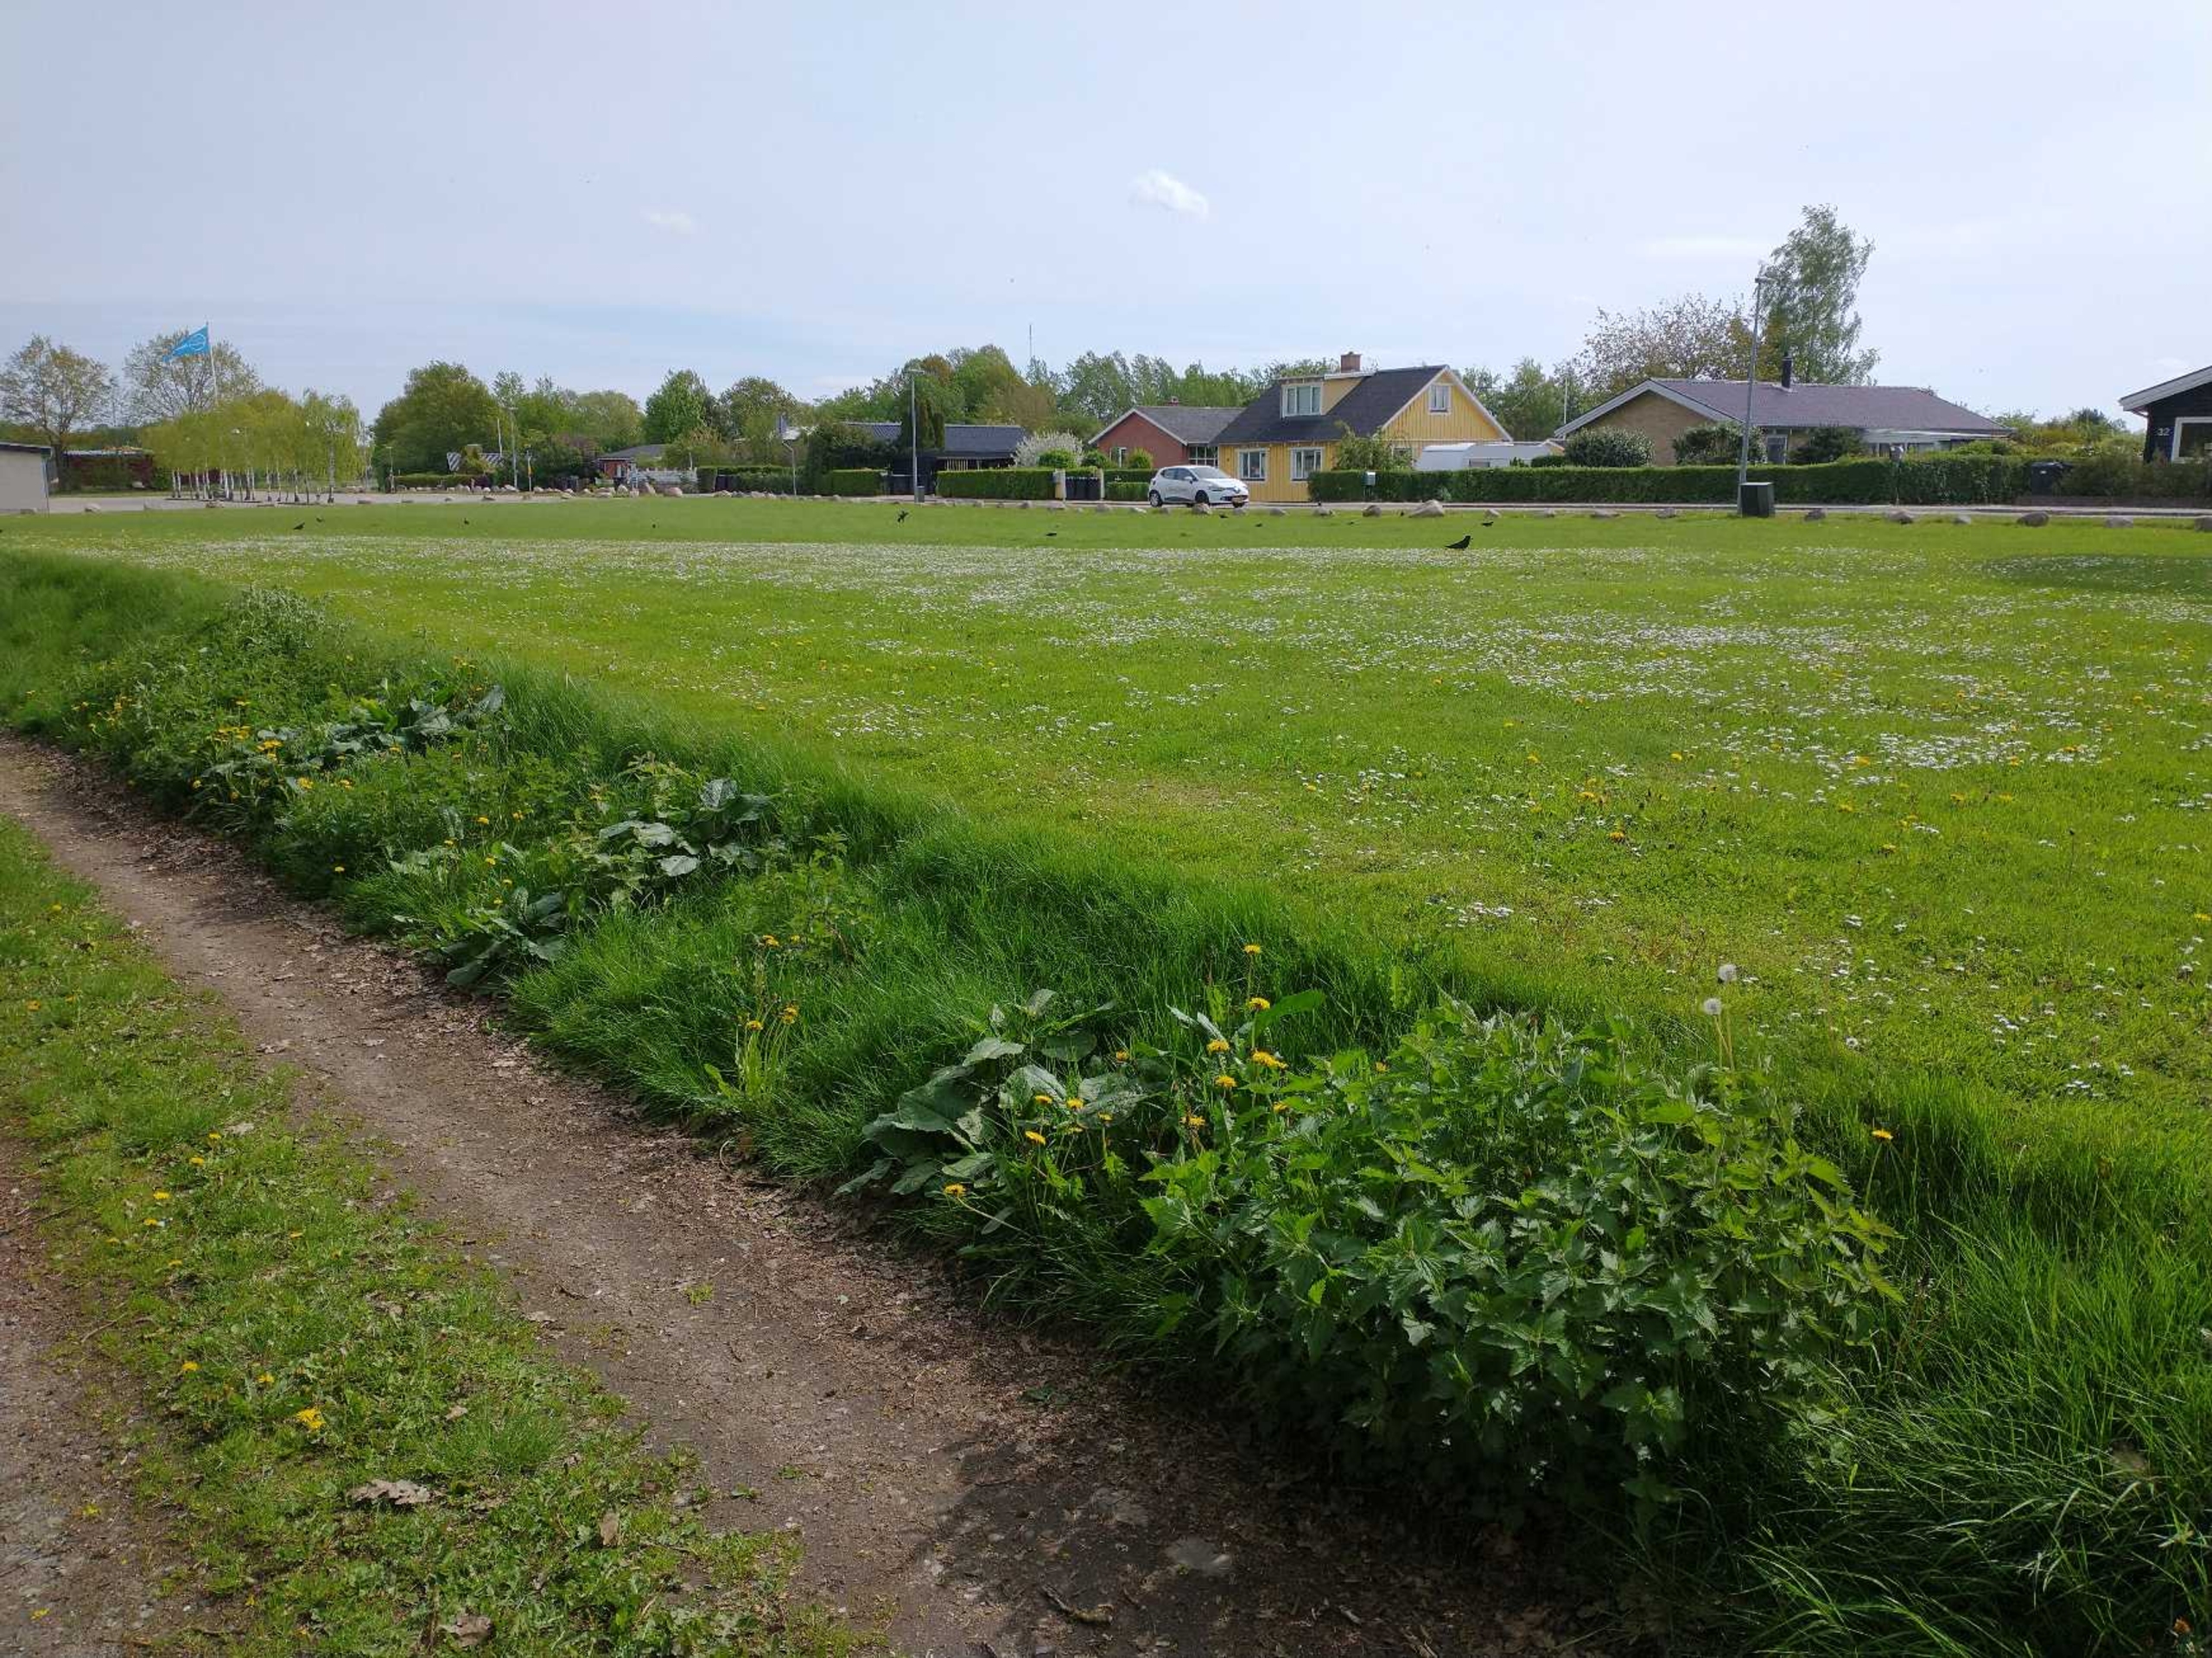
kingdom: Animalia
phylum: Chordata
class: Aves
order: Passeriformes
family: Corvidae
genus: Coloeus
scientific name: Coloeus monedula
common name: Allike
